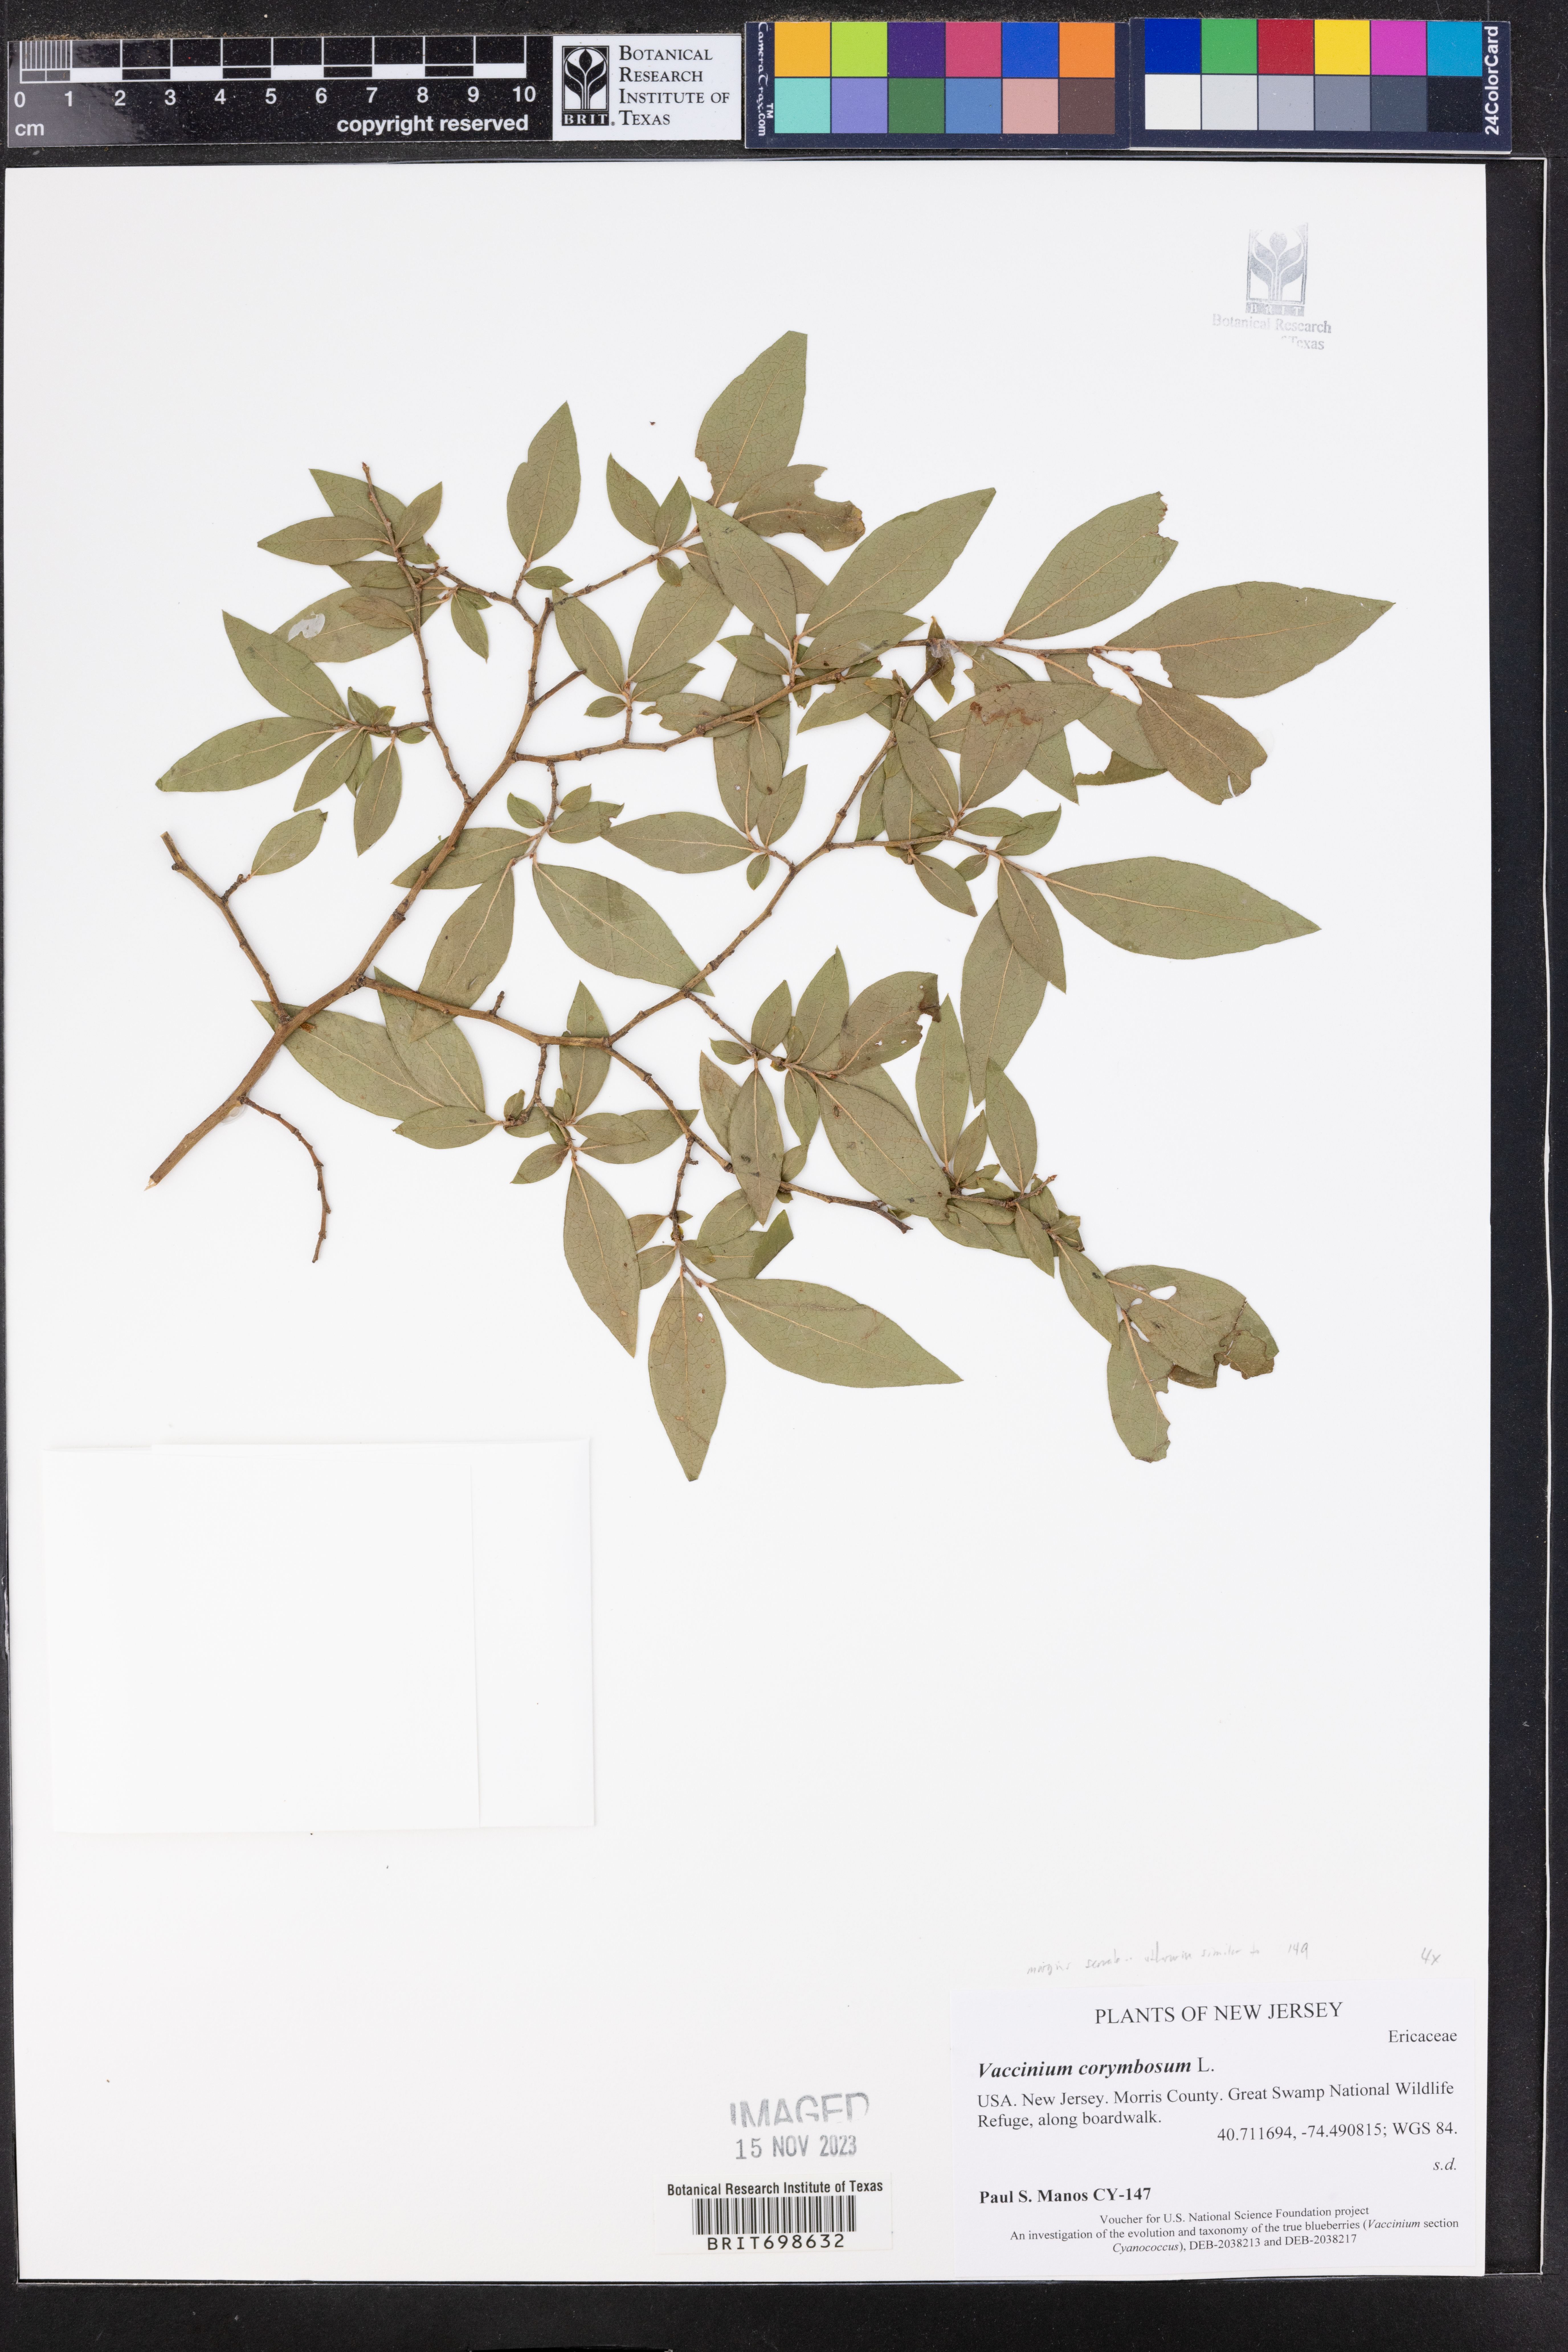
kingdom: Plantae
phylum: Tracheophyta
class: Magnoliopsida
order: Ericales
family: Ericaceae
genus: Vaccinium
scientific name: Vaccinium corymbosum
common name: Blueberry
